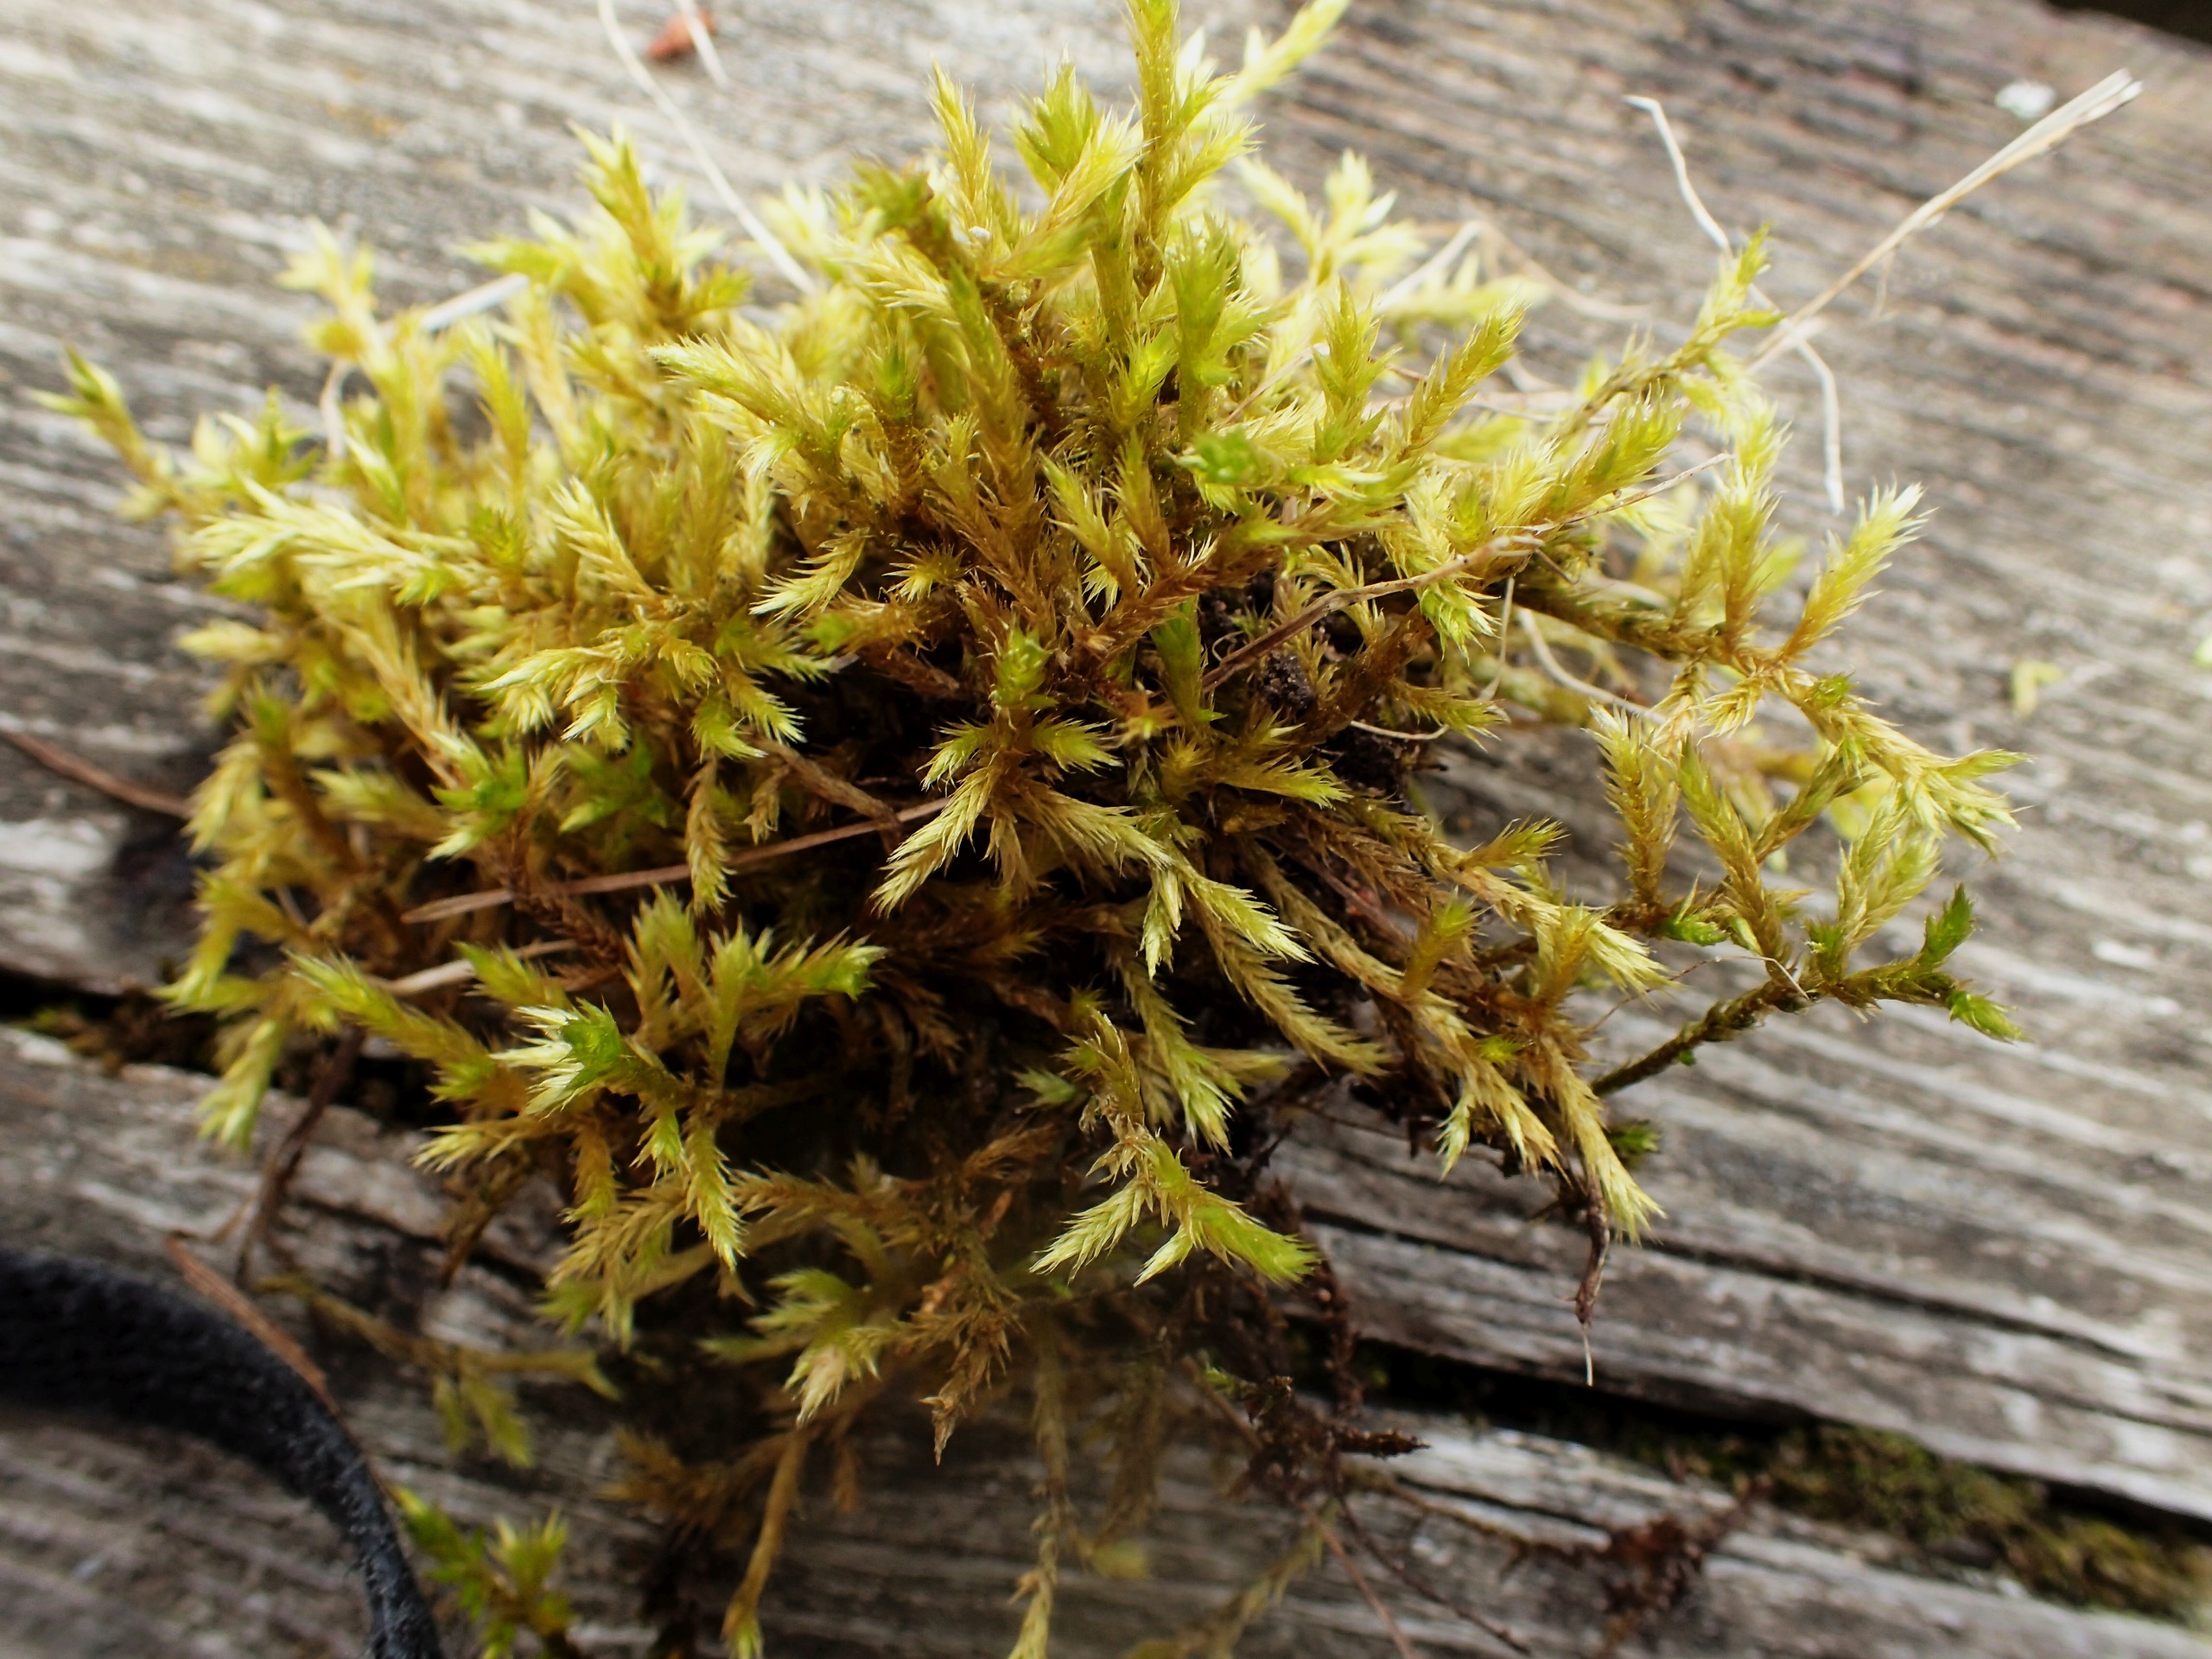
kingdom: Plantae
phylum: Bryophyta
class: Bryopsida
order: Hypnales
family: Brachytheciaceae
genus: Homalothecium
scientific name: Homalothecium lutescens
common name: Gul krumkapsel
